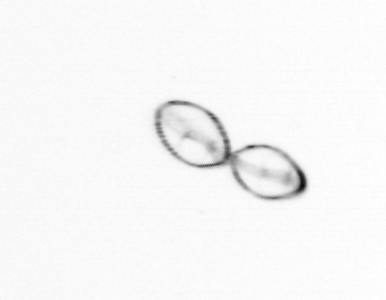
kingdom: Chromista
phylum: Myzozoa
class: Dinophyceae
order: Noctilucales
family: Noctilucaceae
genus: Noctiluca
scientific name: Noctiluca scintillans
